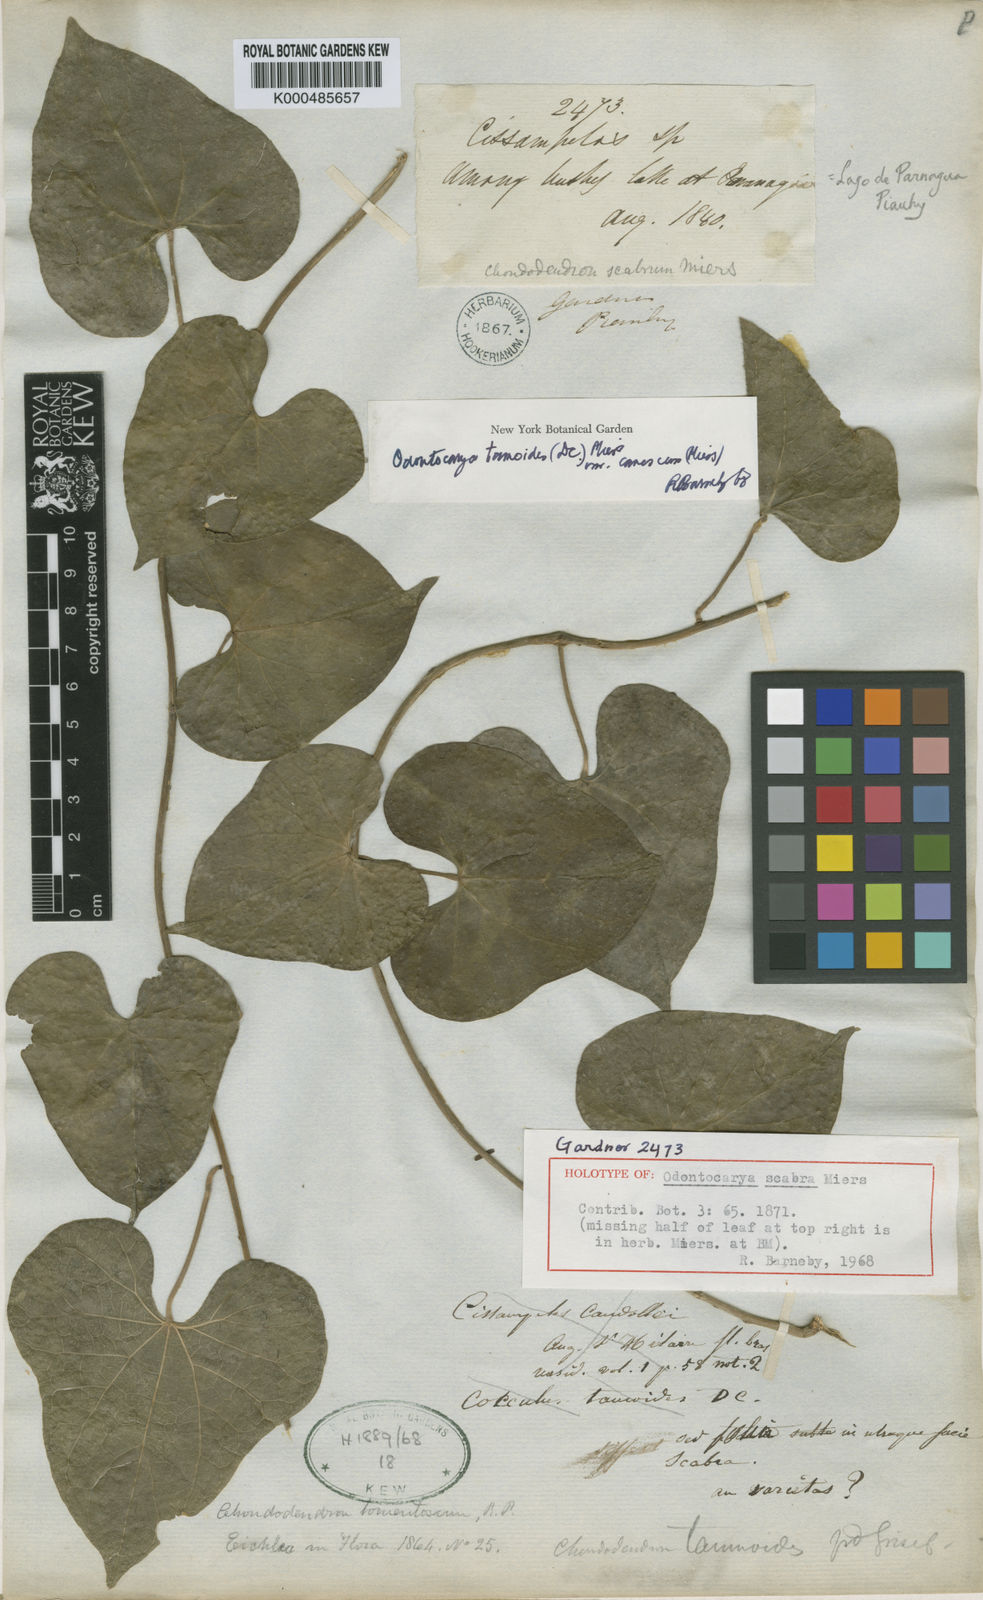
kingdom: Plantae
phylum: Tracheophyta
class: Magnoliopsida
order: Ranunculales
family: Menispermaceae
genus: Odontocarya
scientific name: Odontocarya tamoides
